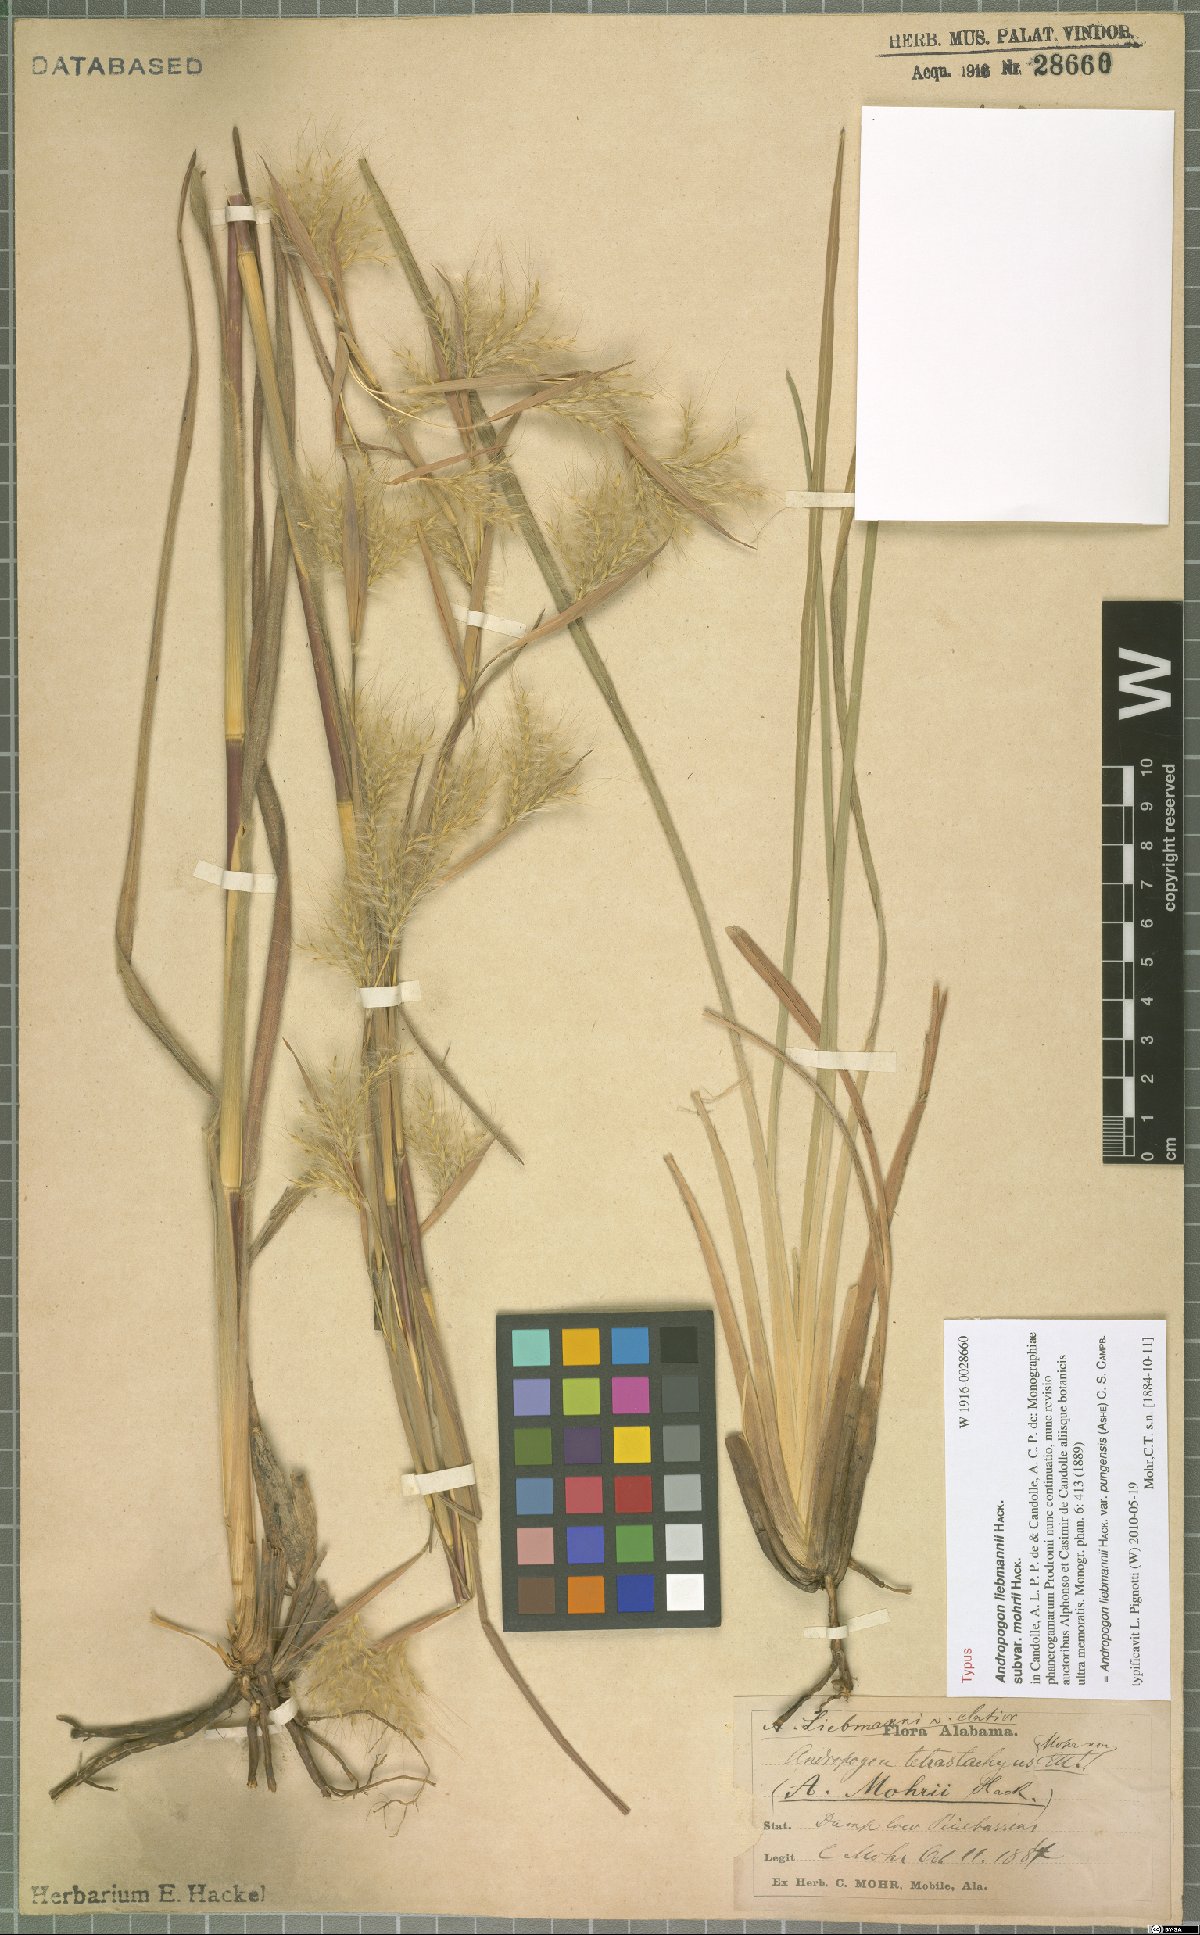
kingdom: Plantae
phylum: Tracheophyta
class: Liliopsida
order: Poales
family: Poaceae
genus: Andropogon
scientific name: Andropogon liebmannii
